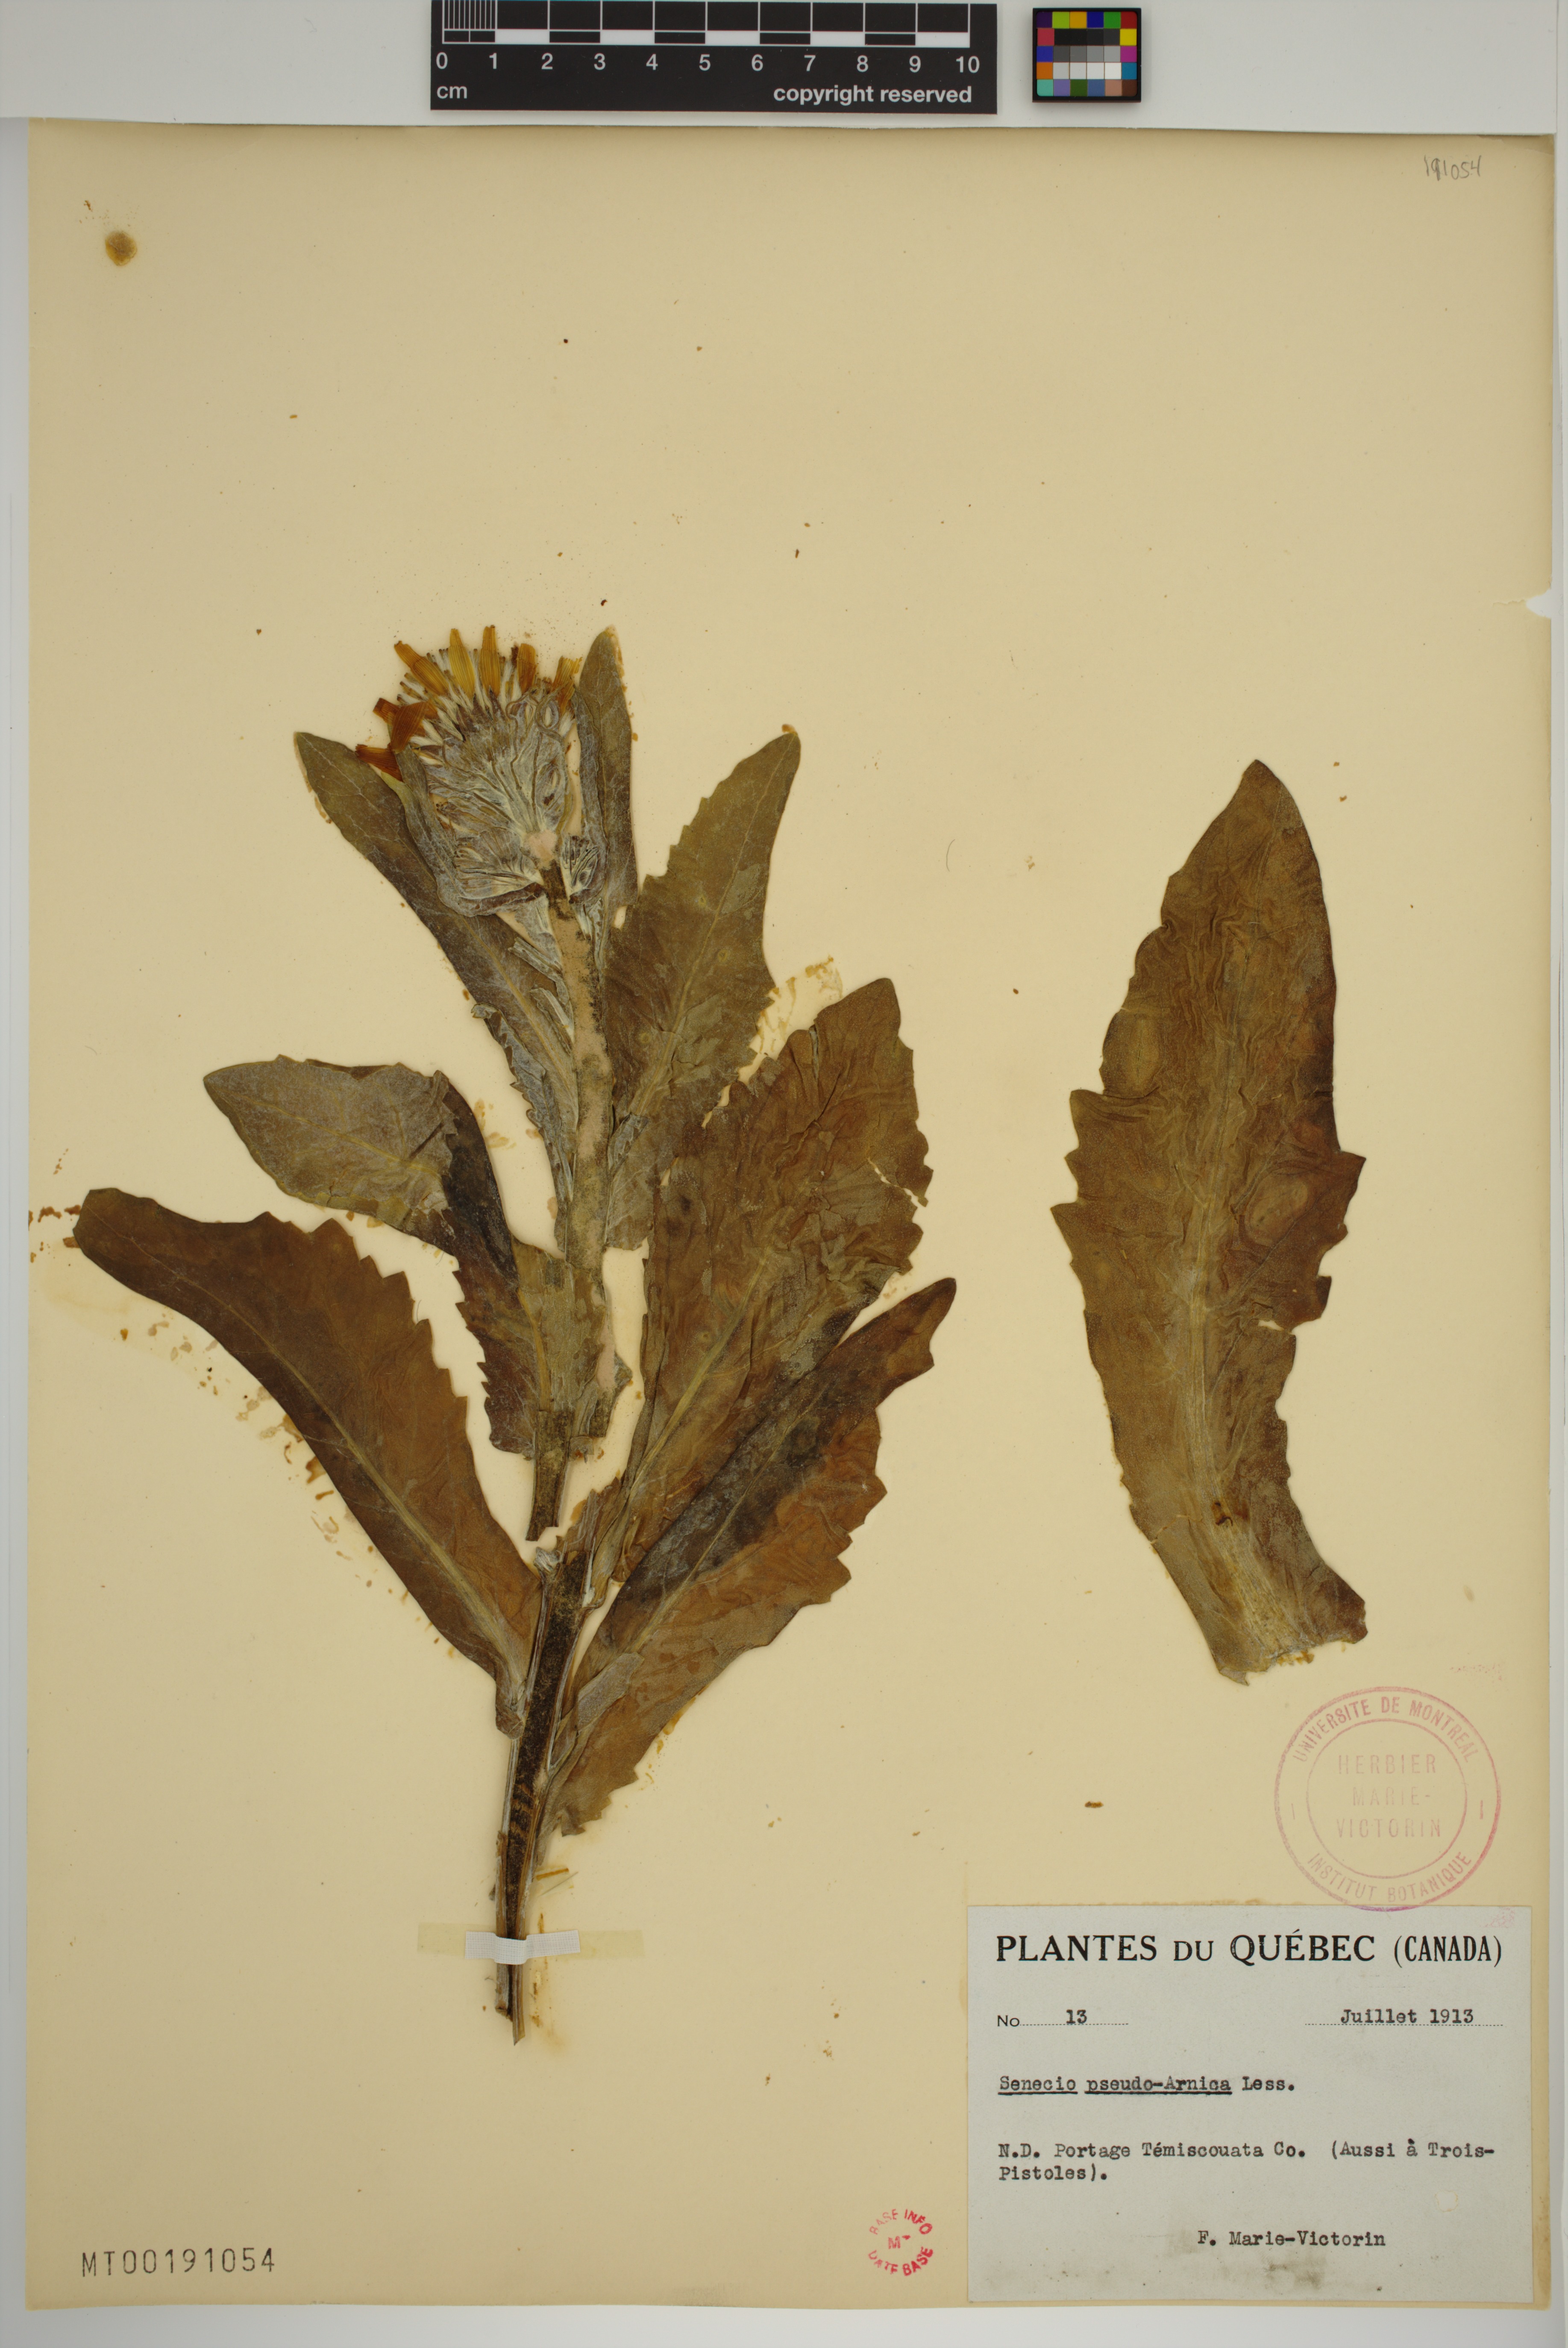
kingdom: Plantae
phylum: Tracheophyta
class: Magnoliopsida
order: Asterales
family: Asteraceae
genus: Jacobaea
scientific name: Jacobaea pseudoarnica
